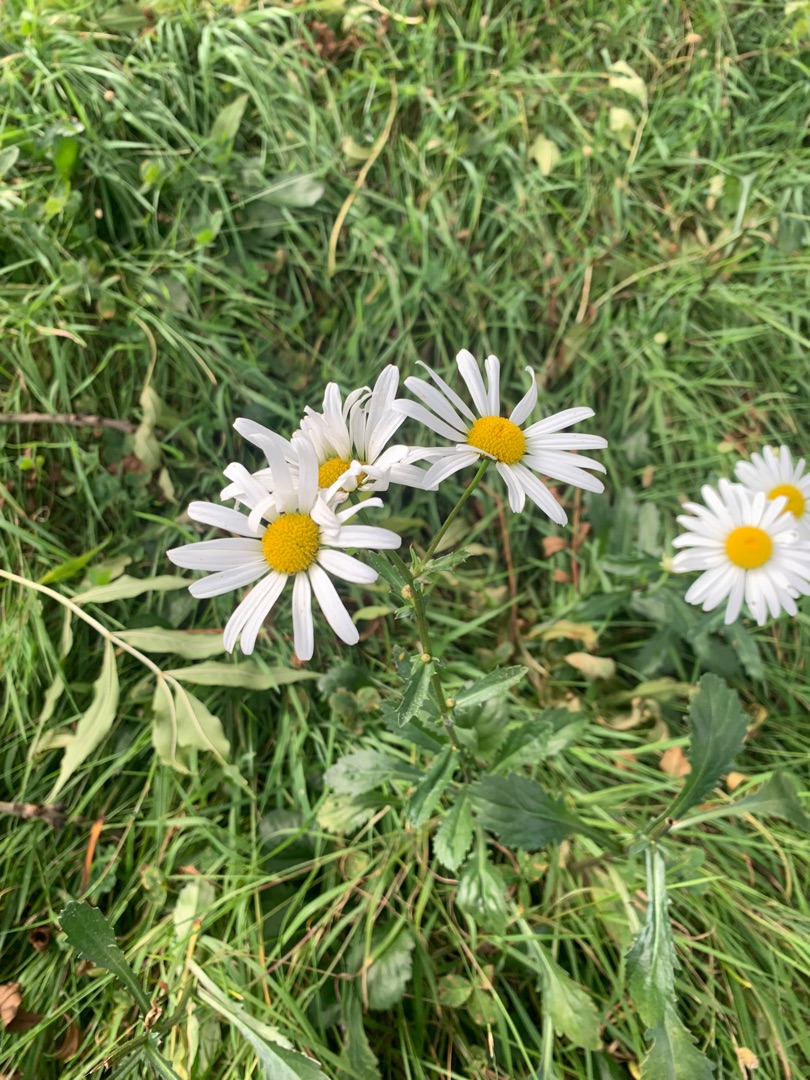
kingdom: Plantae
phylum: Tracheophyta
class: Magnoliopsida
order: Asterales
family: Asteraceae
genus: Leucanthemum
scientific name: Leucanthemum vulgare
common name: Hvid okseøje
